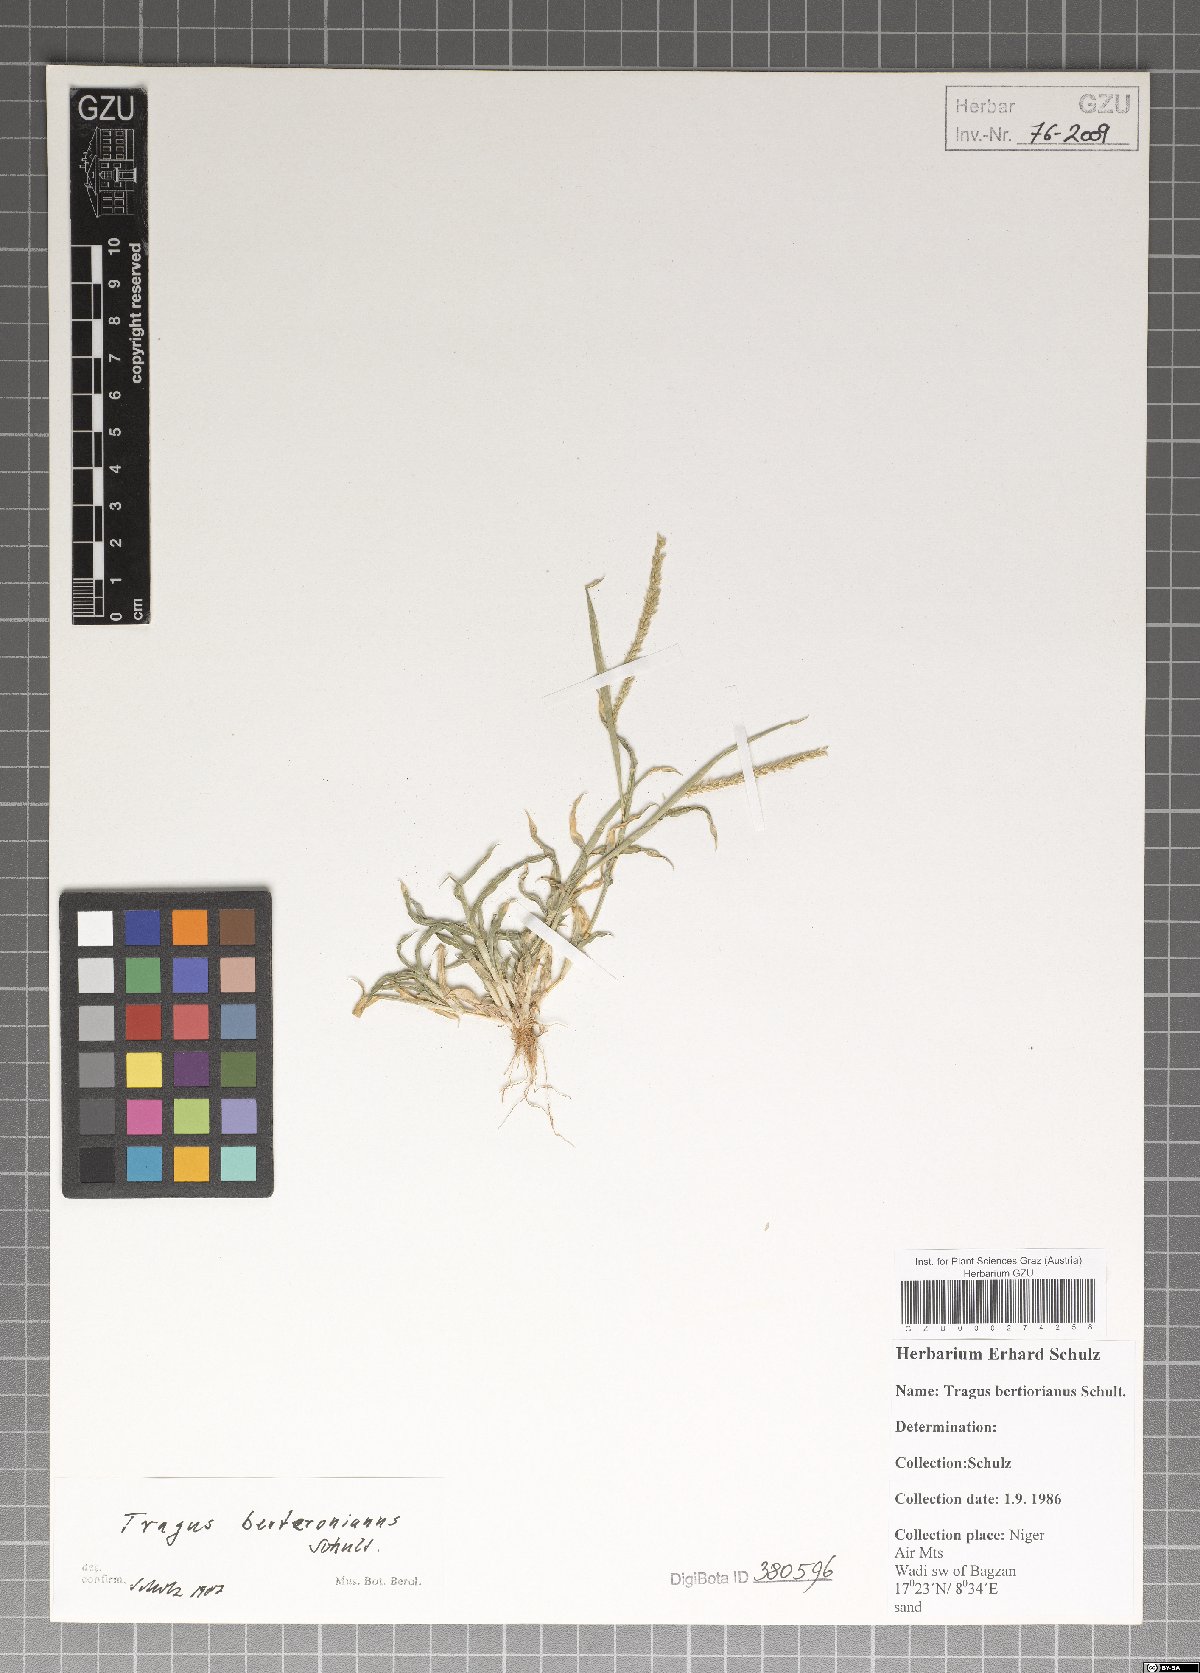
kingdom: Plantae
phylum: Tracheophyta
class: Liliopsida
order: Poales
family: Poaceae
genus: Tragus
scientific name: Tragus berteronianus
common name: African bur-grass
